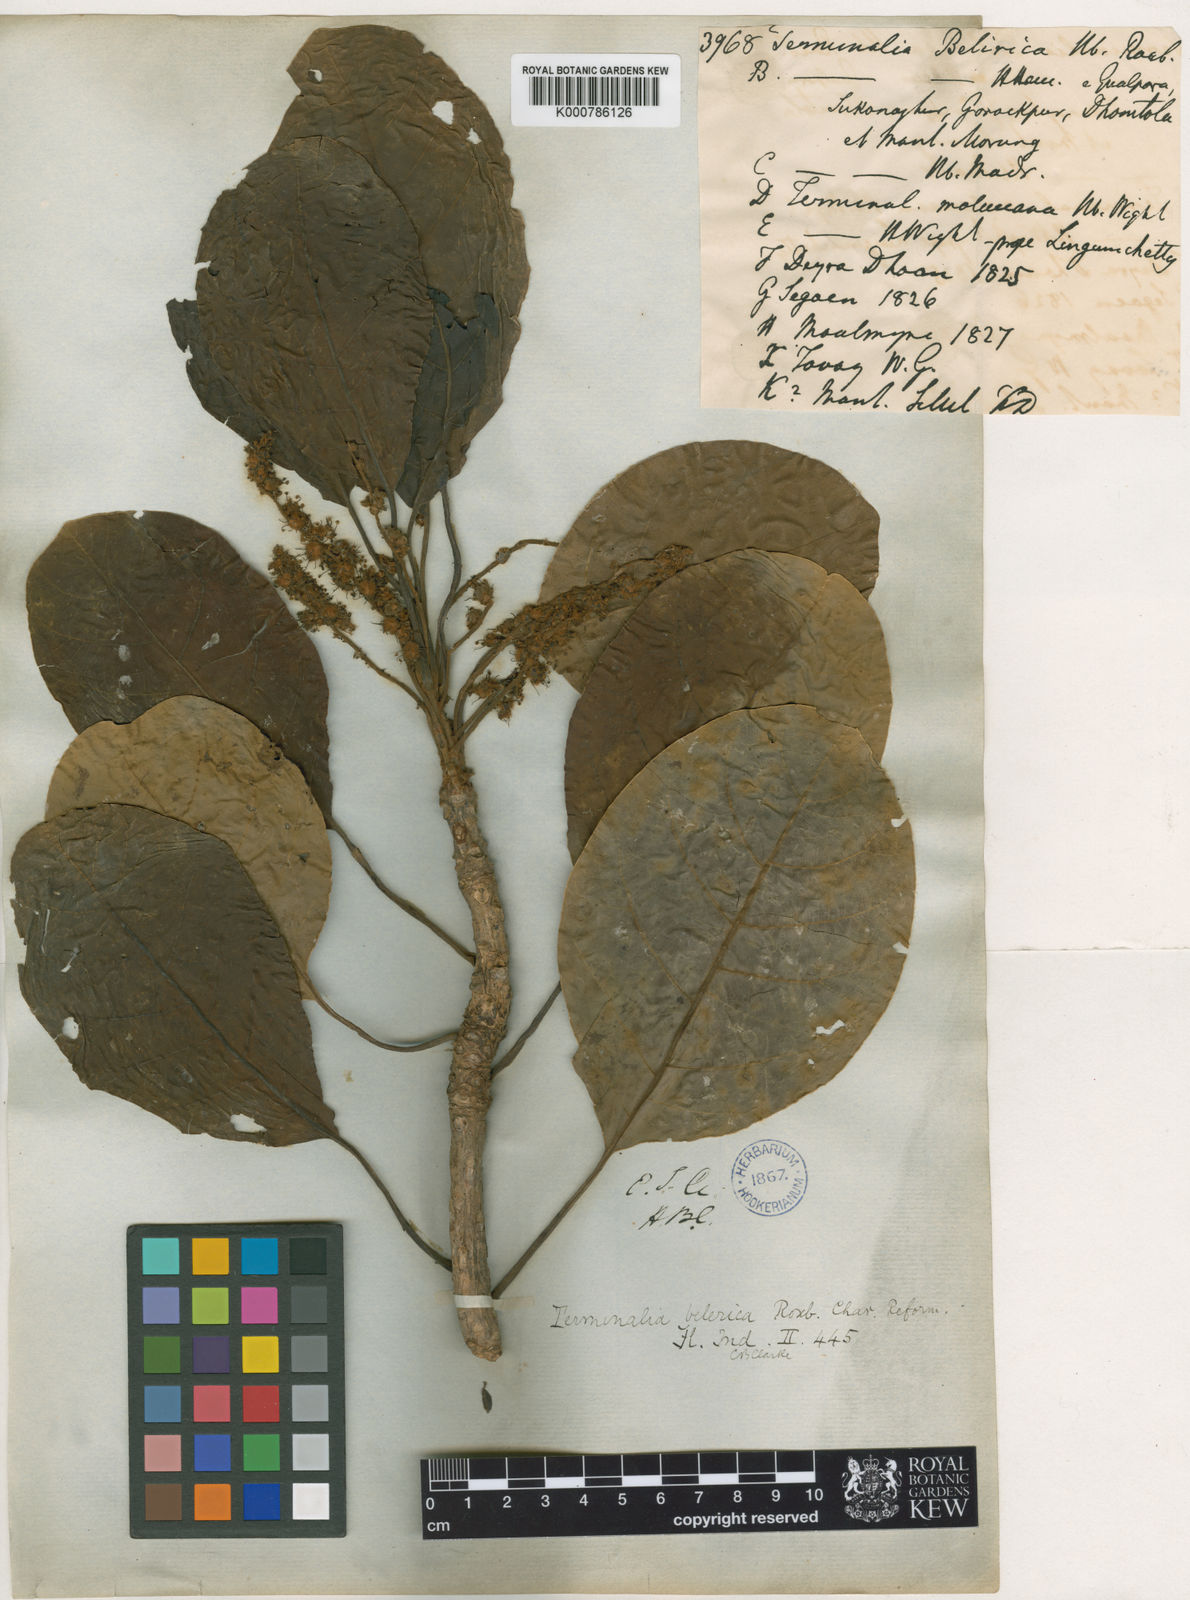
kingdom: Plantae
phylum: Tracheophyta
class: Magnoliopsida
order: Myrtales
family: Combretaceae
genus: Terminalia
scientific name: Terminalia bellirica
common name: Beleric myrobalan
